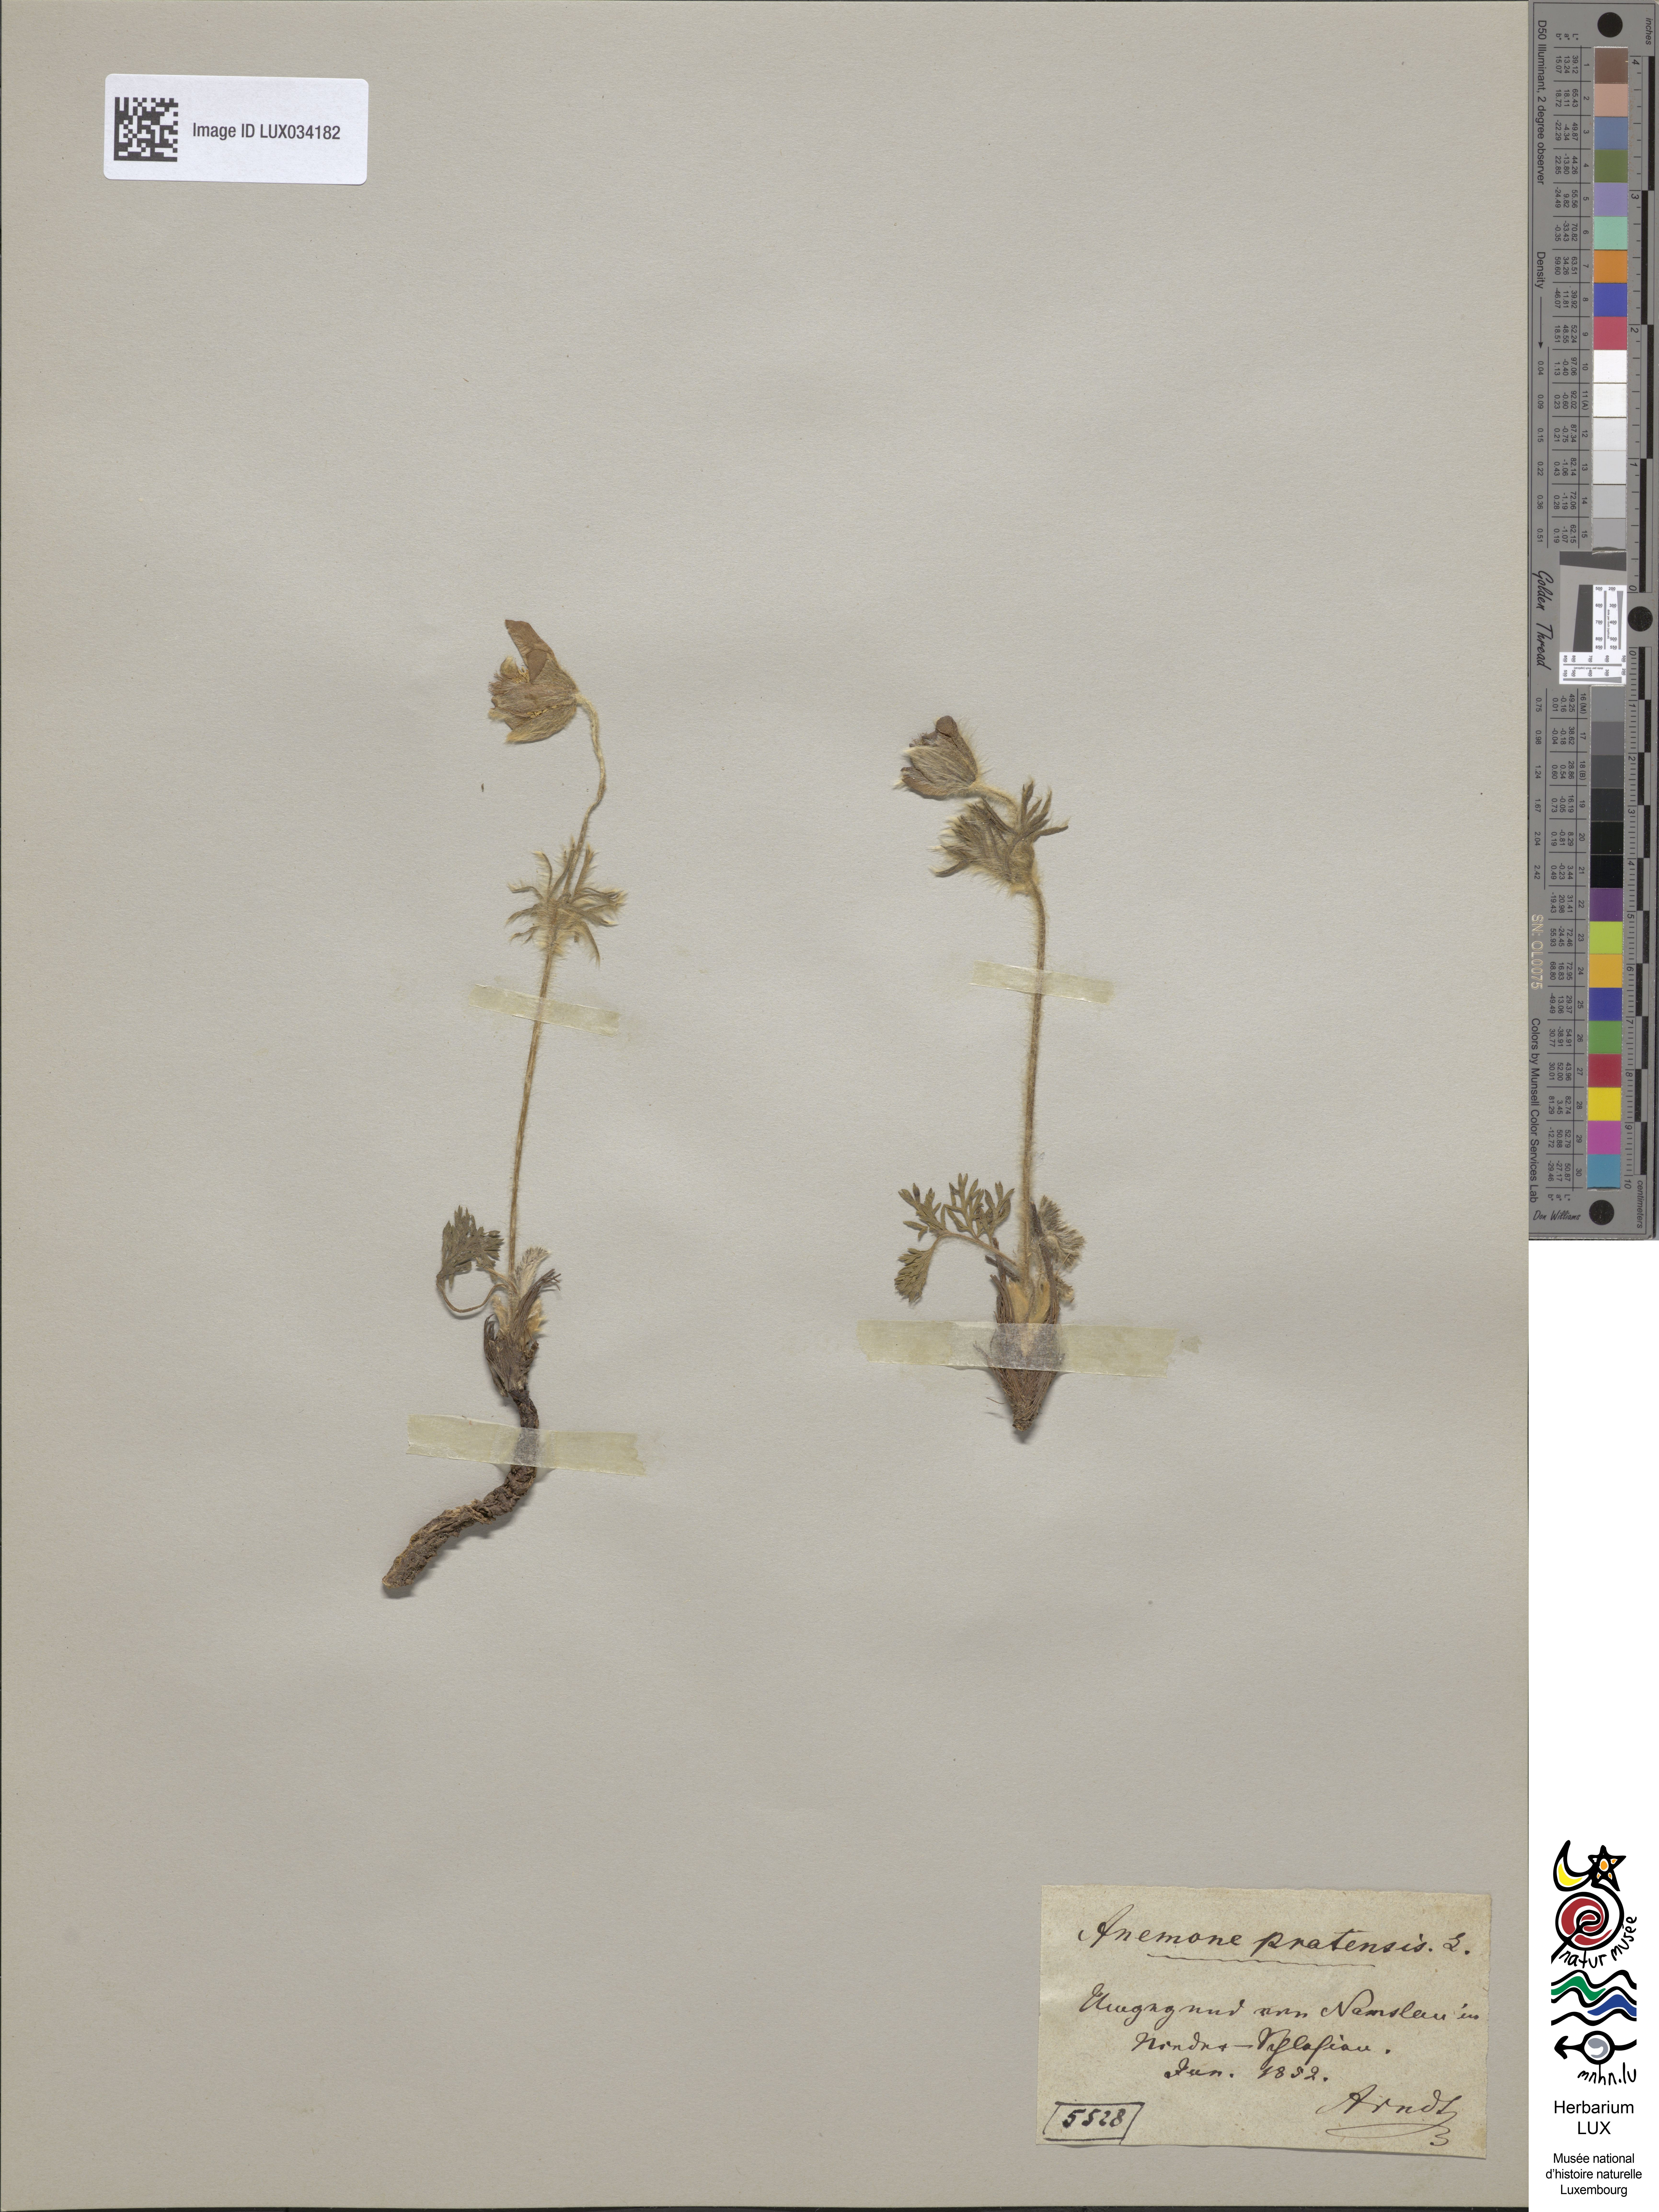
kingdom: Plantae
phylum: Tracheophyta
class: Magnoliopsida
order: Ranunculales
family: Ranunculaceae
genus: Pulsatilla
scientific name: Pulsatilla pratensis
